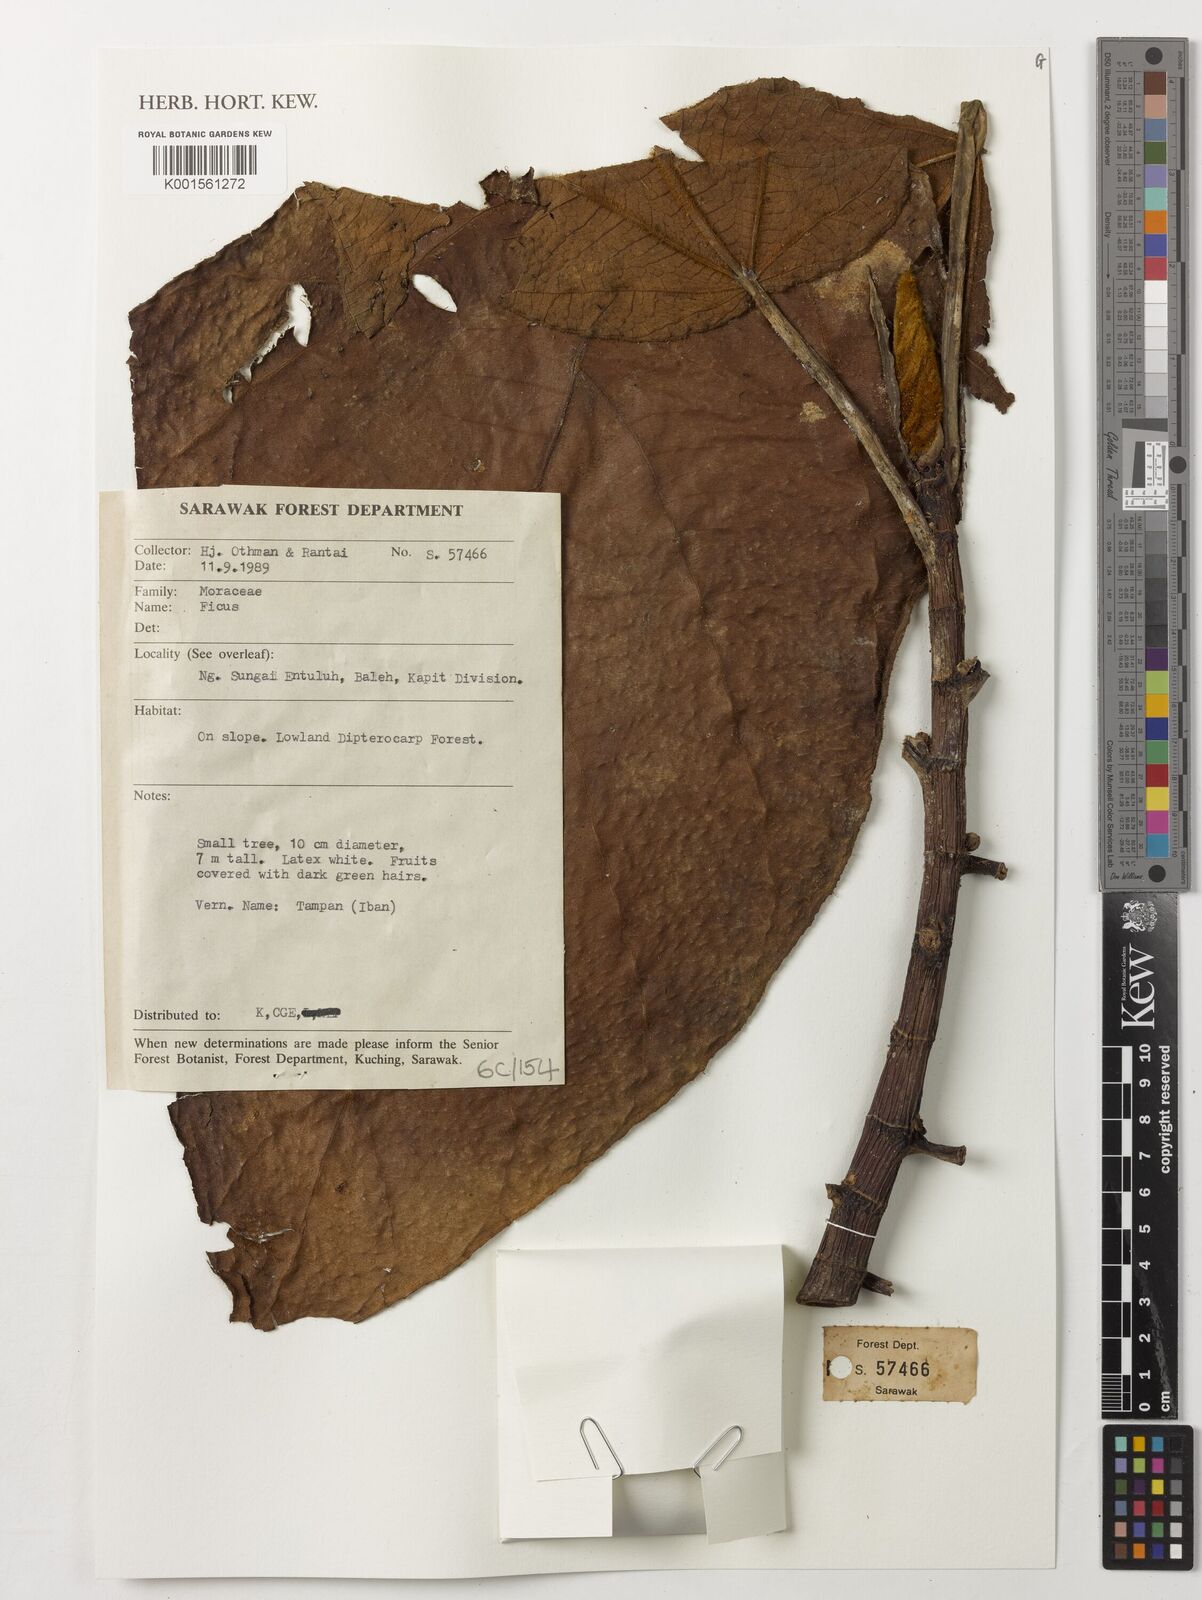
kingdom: Plantae
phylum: Tracheophyta
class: Magnoliopsida
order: Rosales
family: Moraceae
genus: Ficus
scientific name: Ficus
